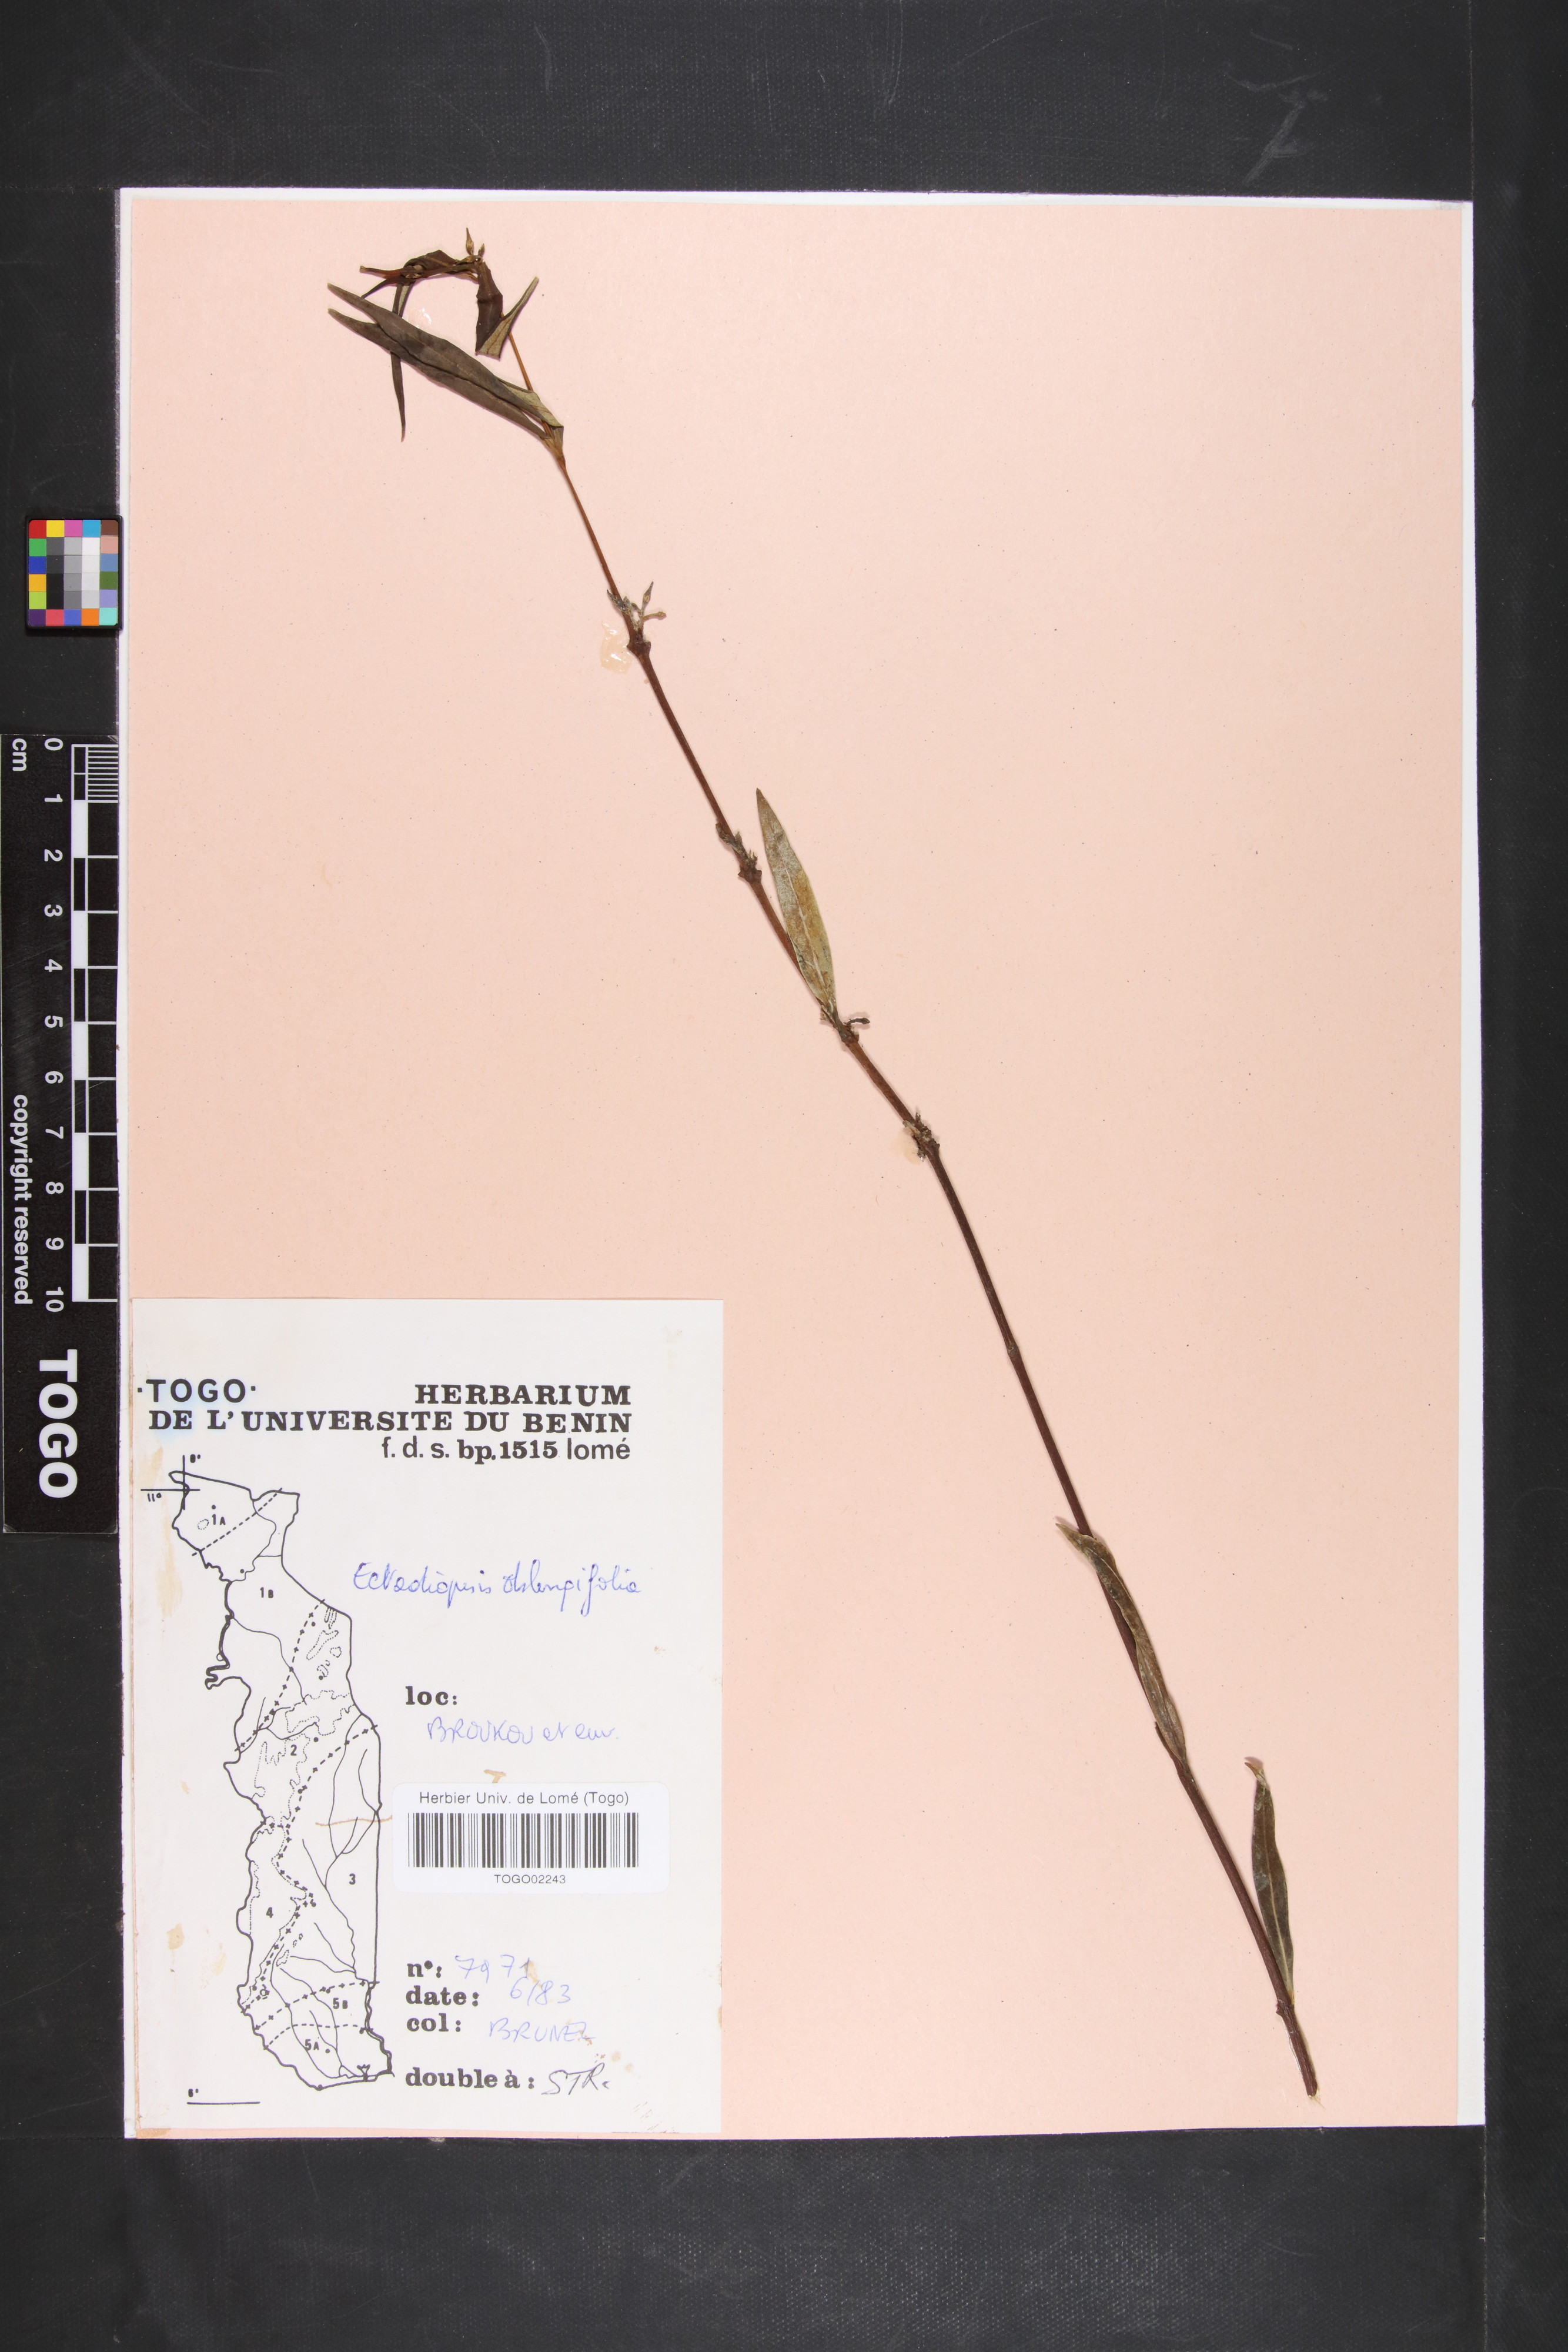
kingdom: Plantae
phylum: Tracheophyta
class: Magnoliopsida
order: Gentianales
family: Apocynaceae
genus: Cryptolepis
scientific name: Cryptolepis oblongifolia
